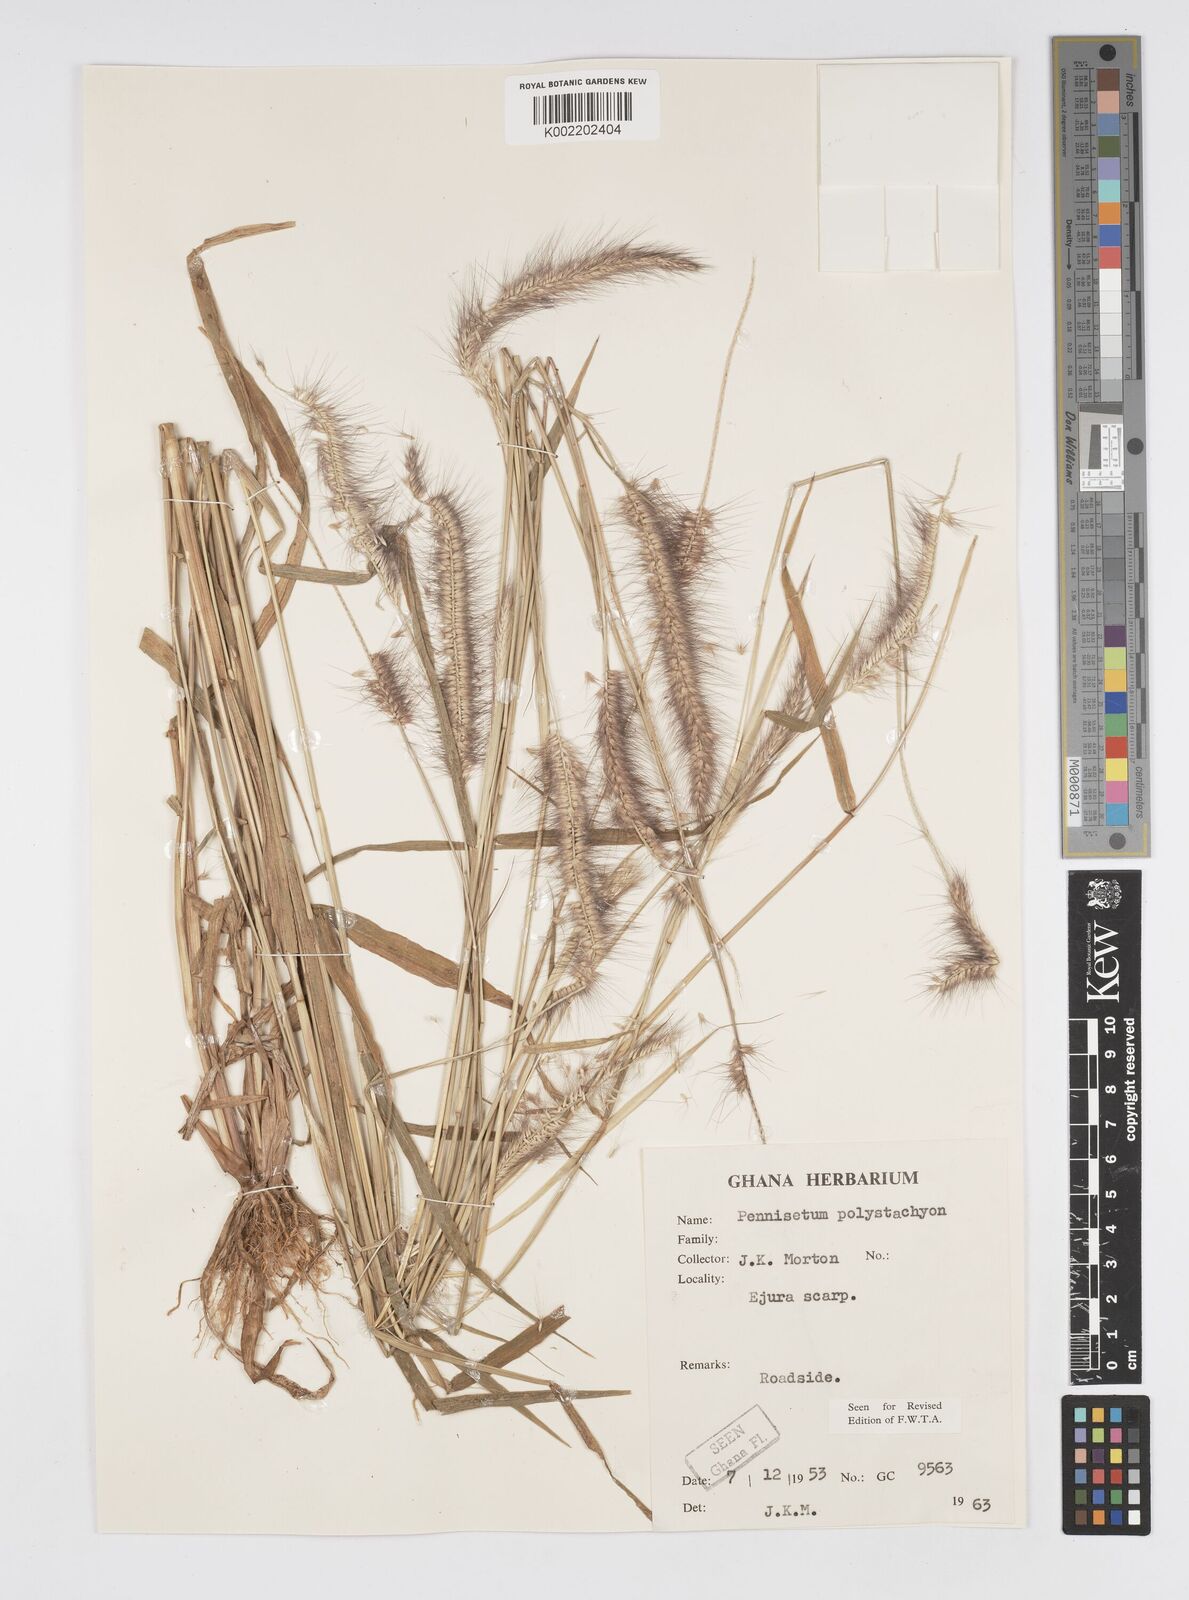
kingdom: Plantae
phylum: Tracheophyta
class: Liliopsida
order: Poales
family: Poaceae
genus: Setaria
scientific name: Setaria parviflora
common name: Knotroot bristle-grass
